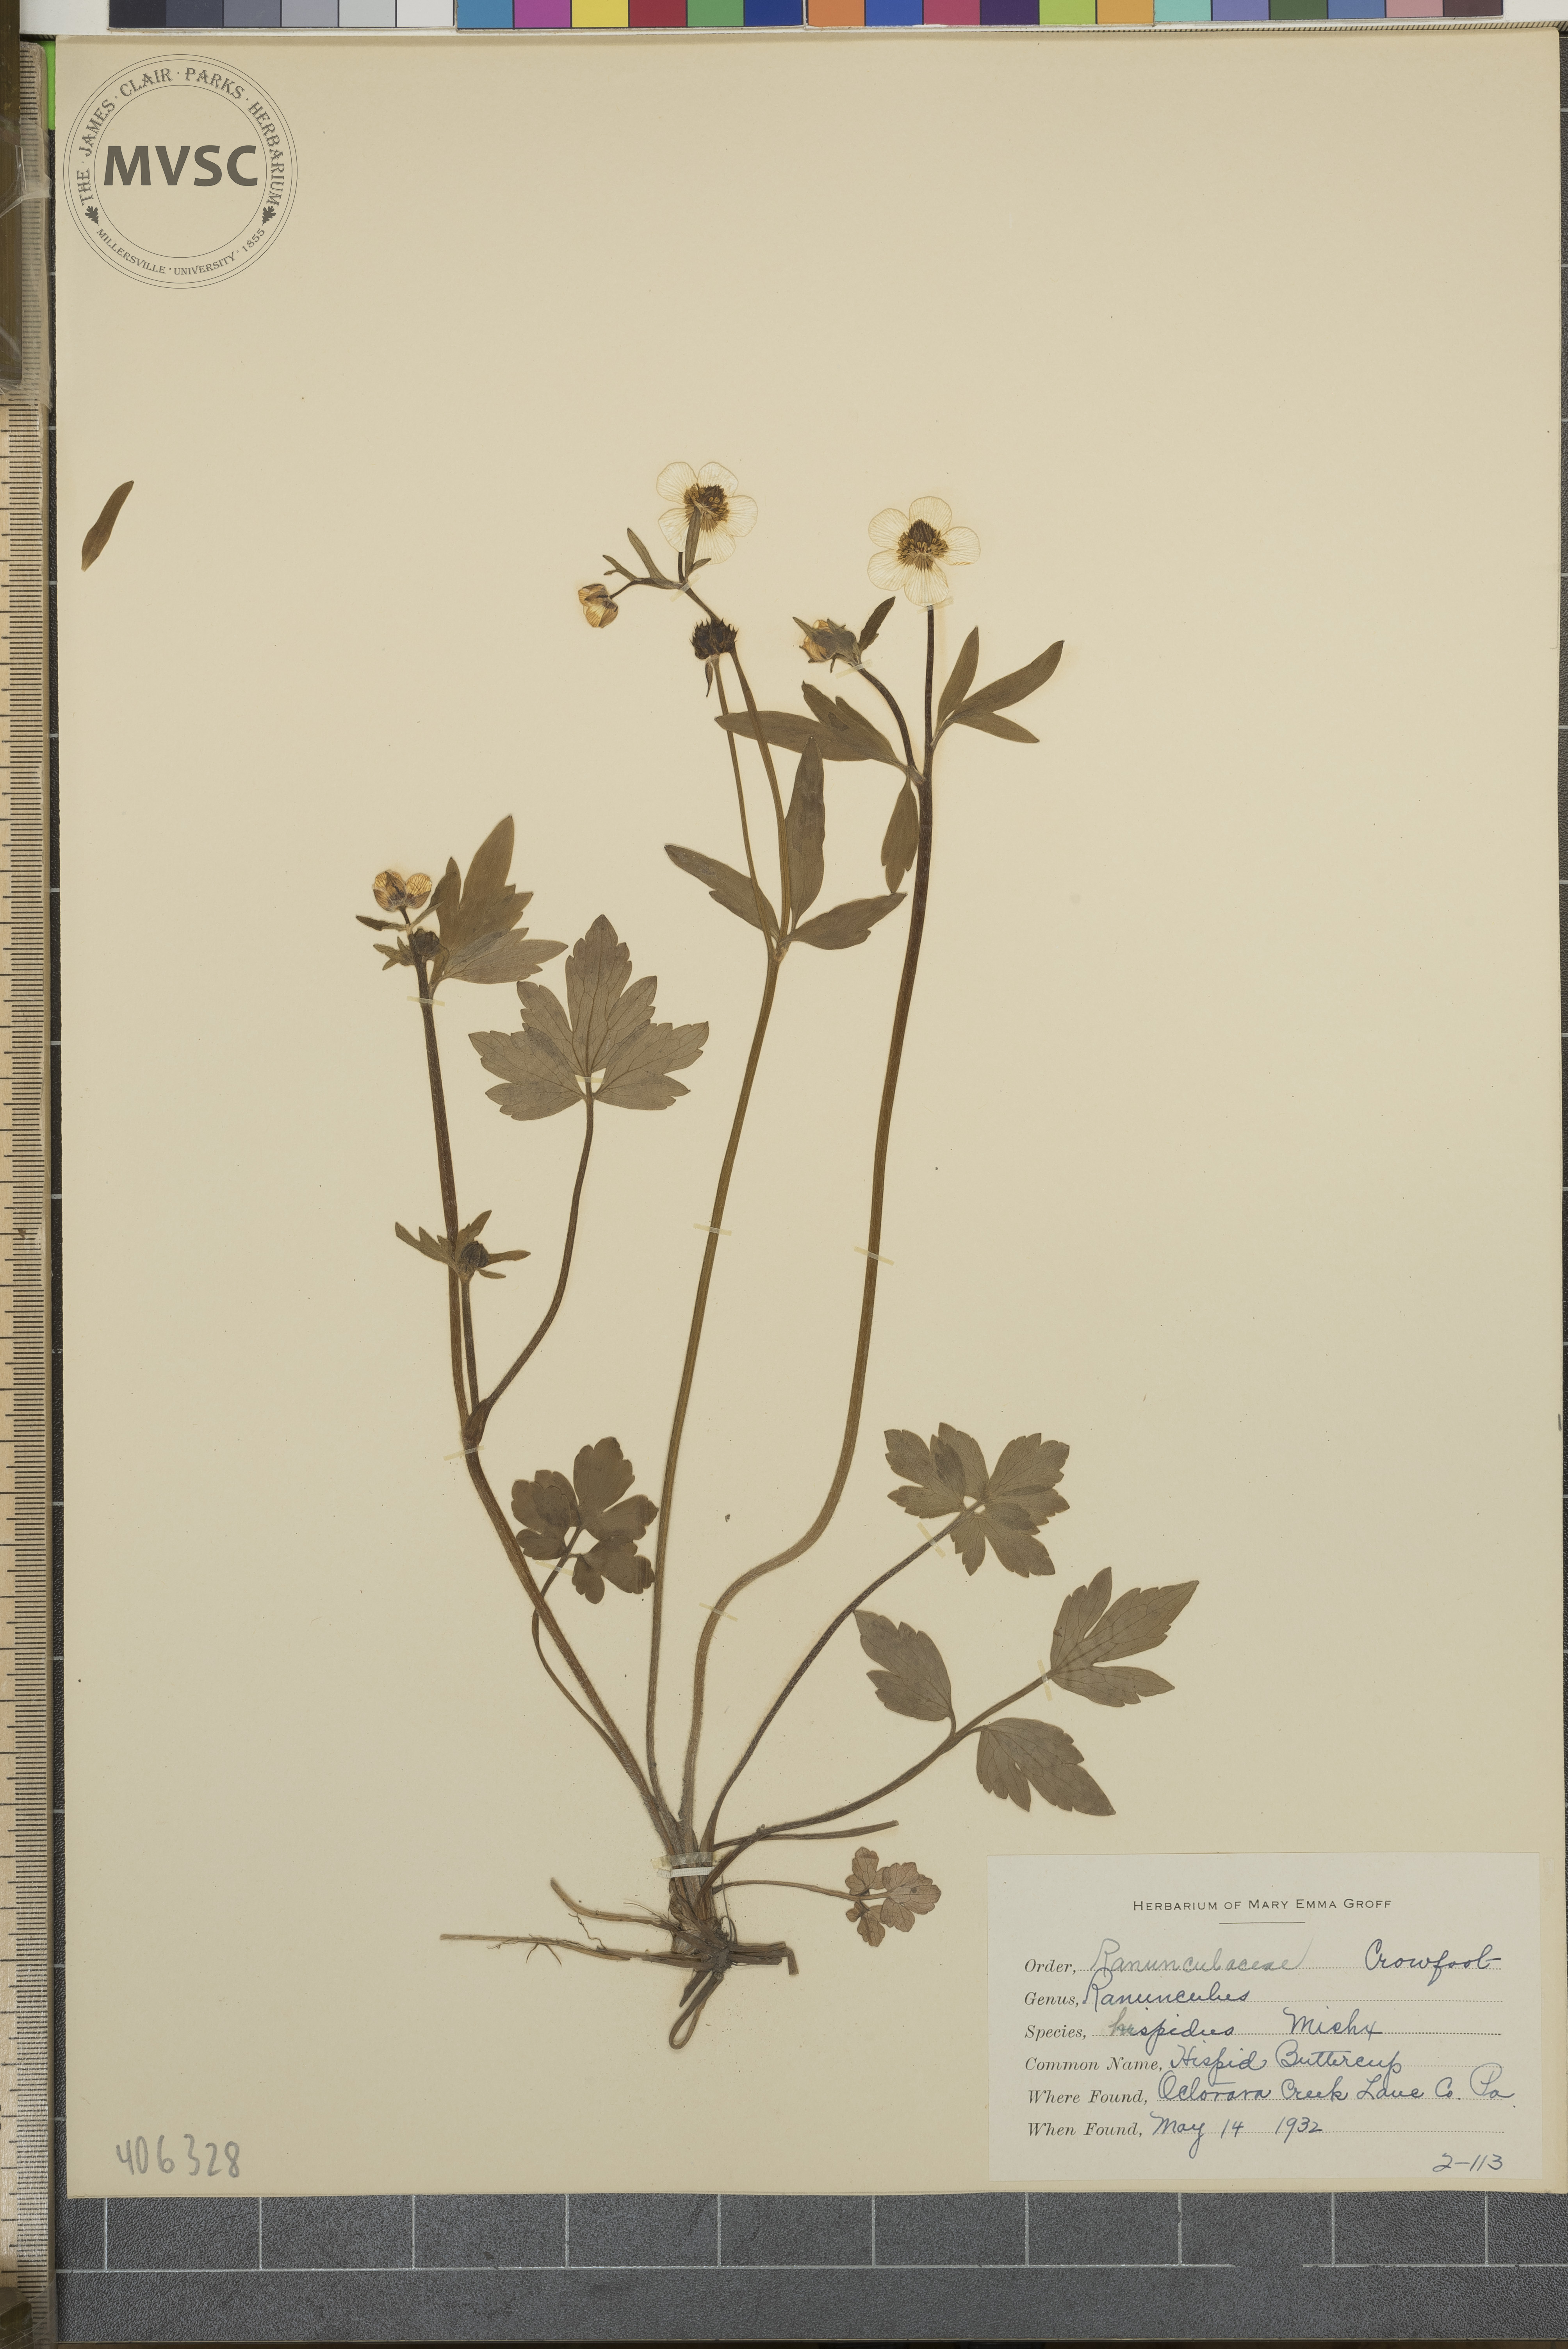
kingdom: Plantae
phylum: Tracheophyta
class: Magnoliopsida
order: Ranunculales
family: Ranunculaceae
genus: Ranunculus
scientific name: Ranunculus hispidus
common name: Hispid Buttercup
